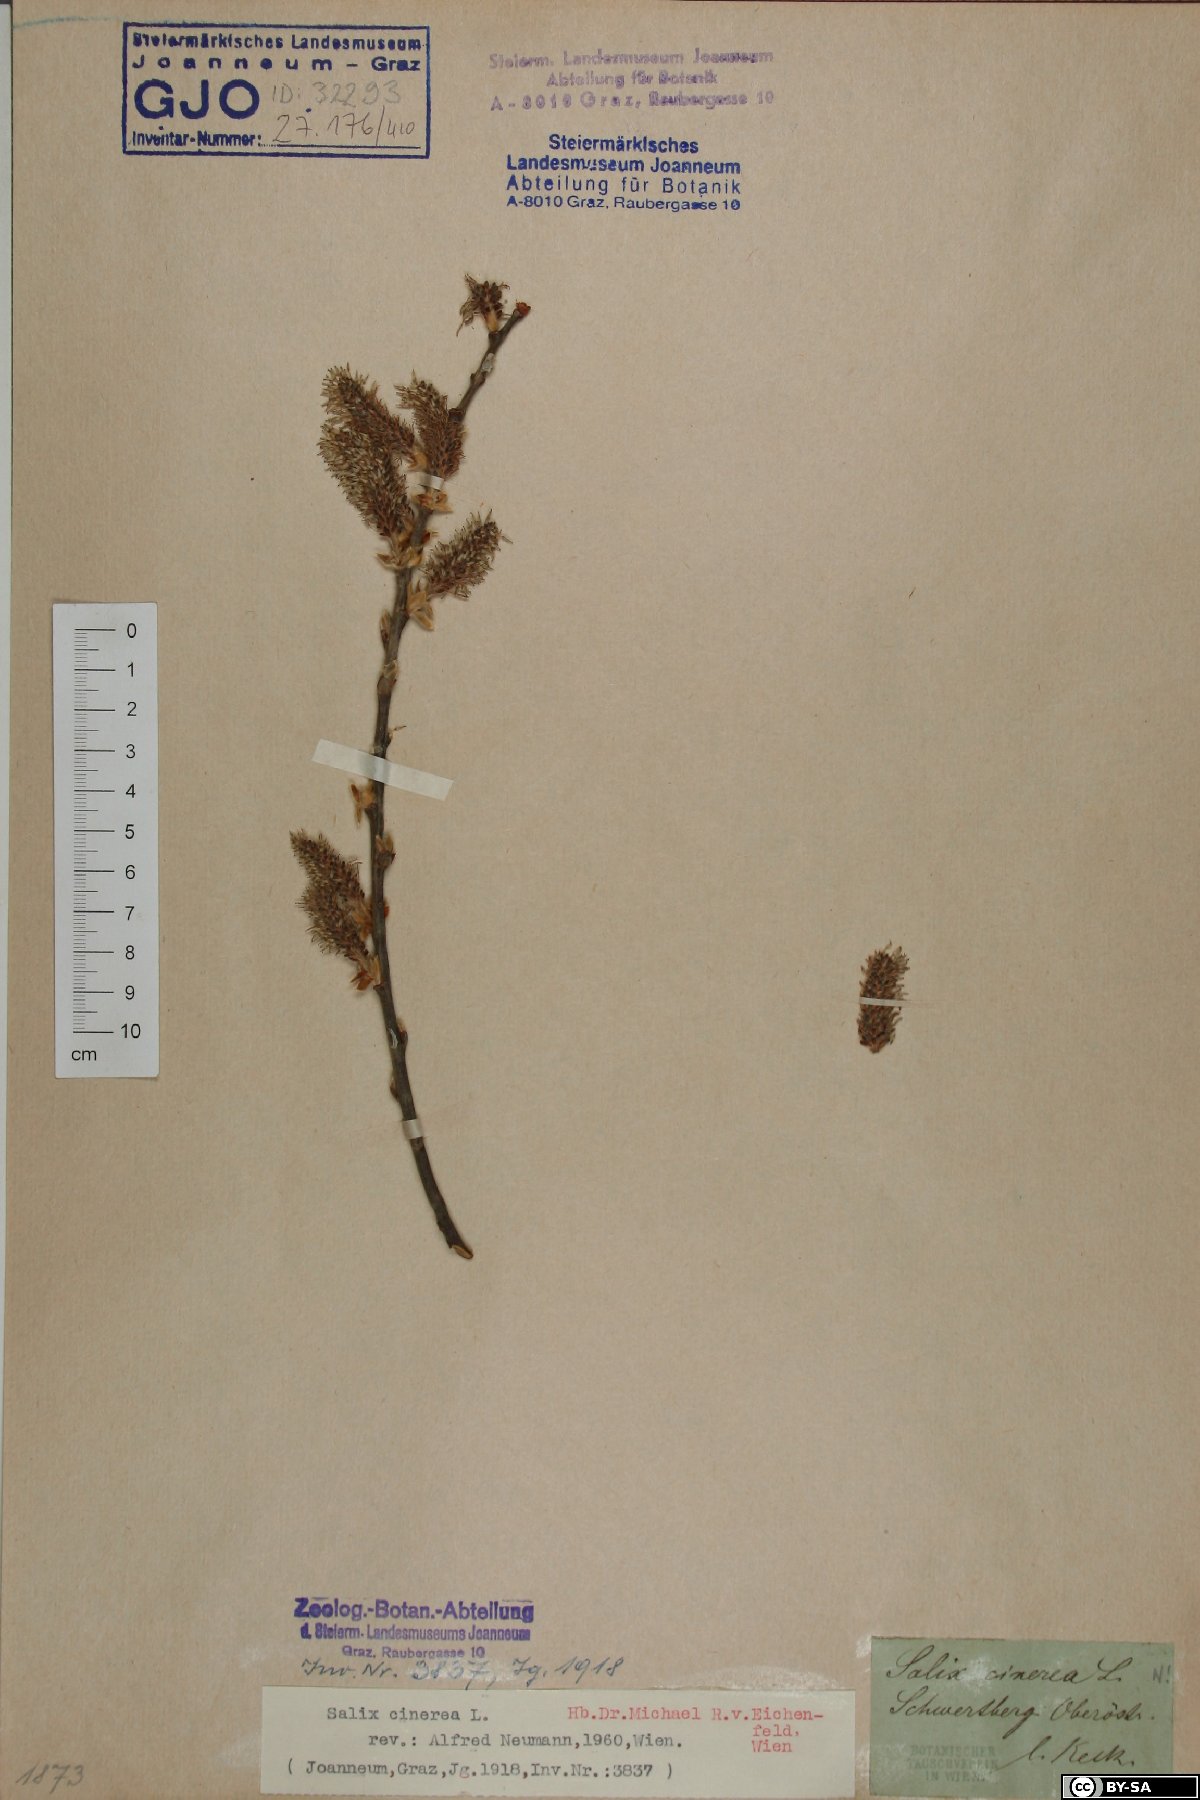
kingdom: Plantae
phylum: Tracheophyta
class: Magnoliopsida
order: Malpighiales
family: Salicaceae
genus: Salix
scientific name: Salix cinerea
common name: Common sallow
